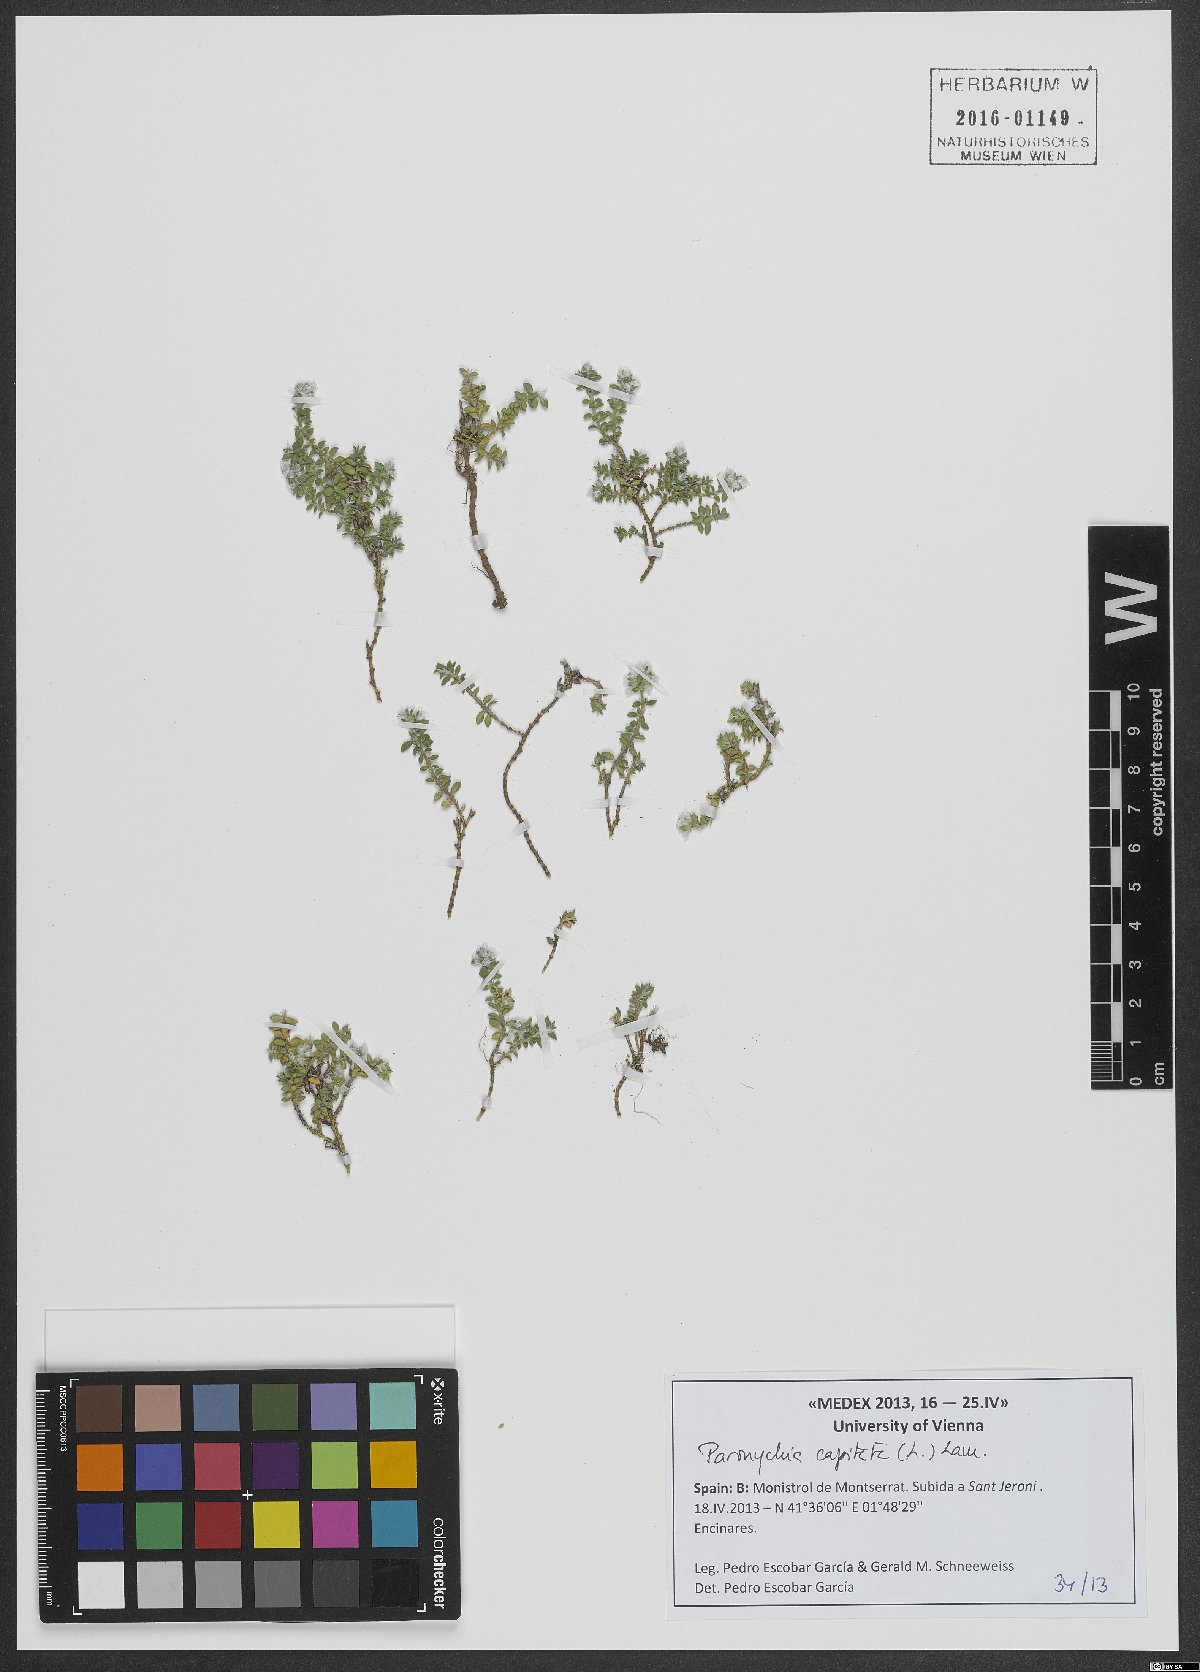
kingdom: Plantae
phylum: Tracheophyta
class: Magnoliopsida
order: Caryophyllales
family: Caryophyllaceae
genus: Paronychia
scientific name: Paronychia capitata
